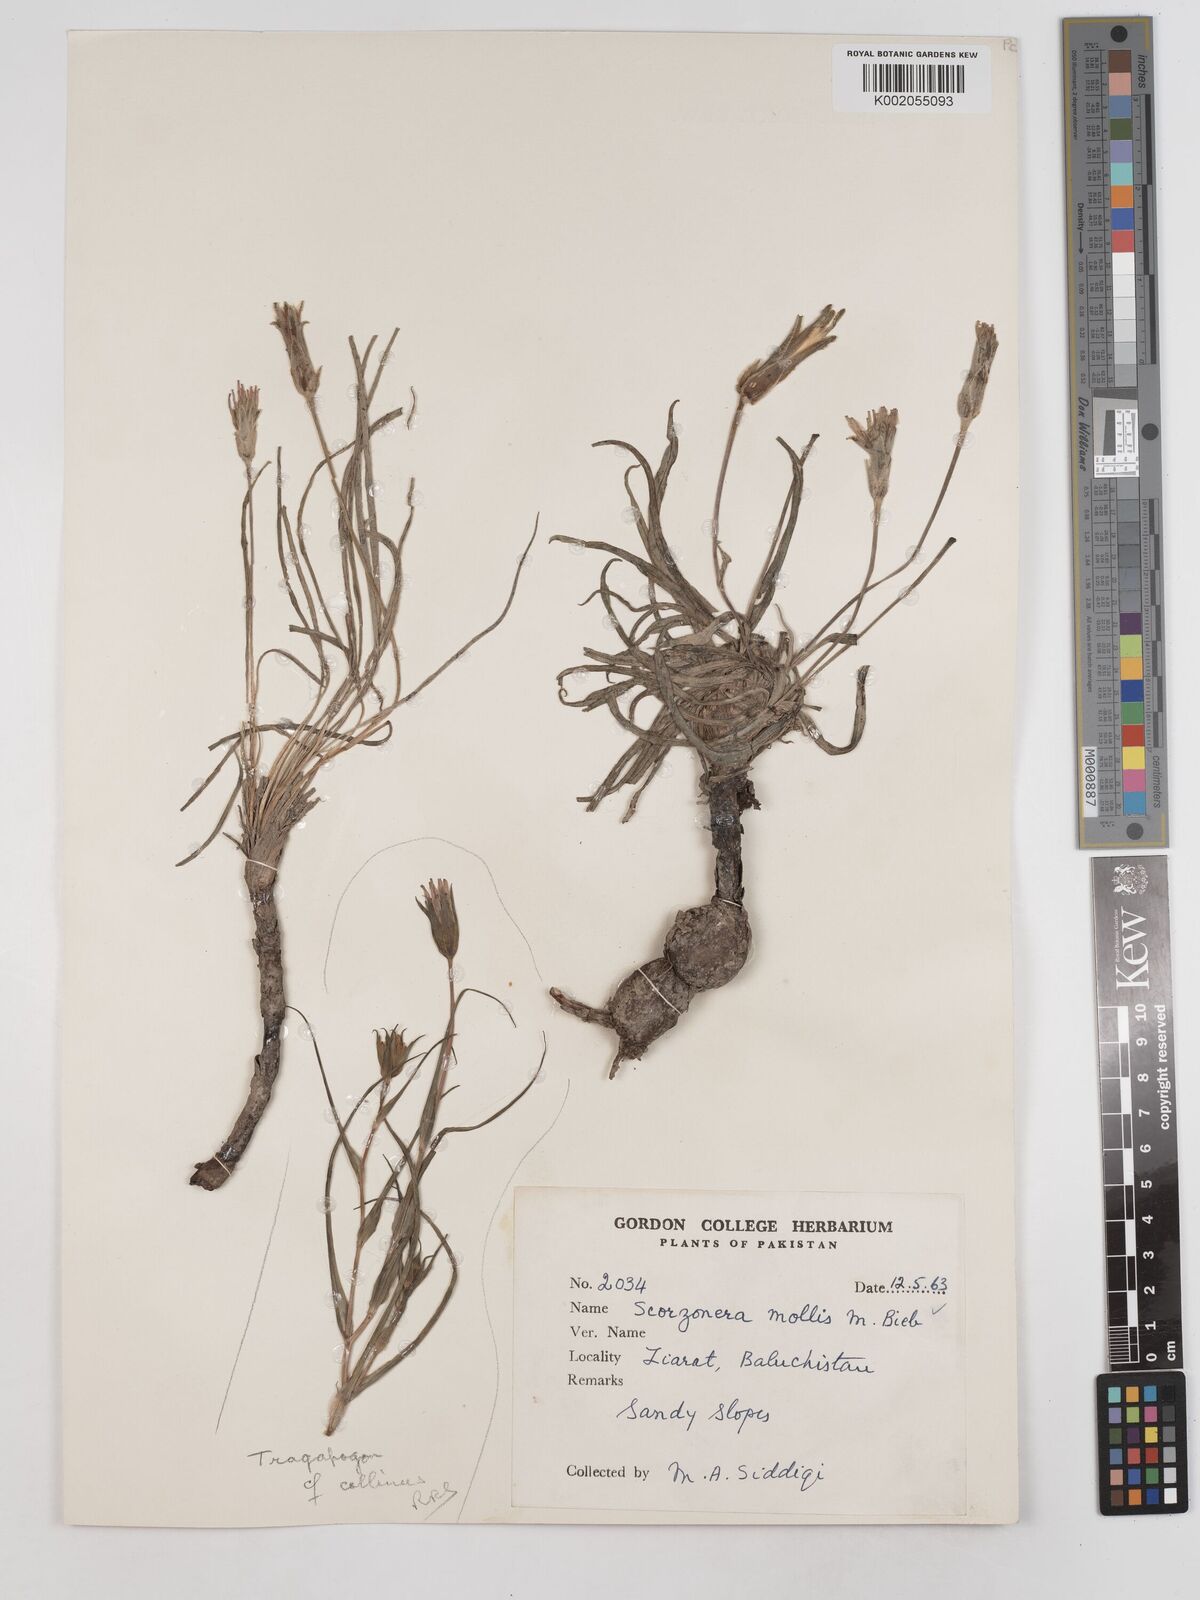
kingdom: Plantae
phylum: Tracheophyta
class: Magnoliopsida
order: Asterales
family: Asteraceae
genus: Candollea
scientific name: Candollea mollis
